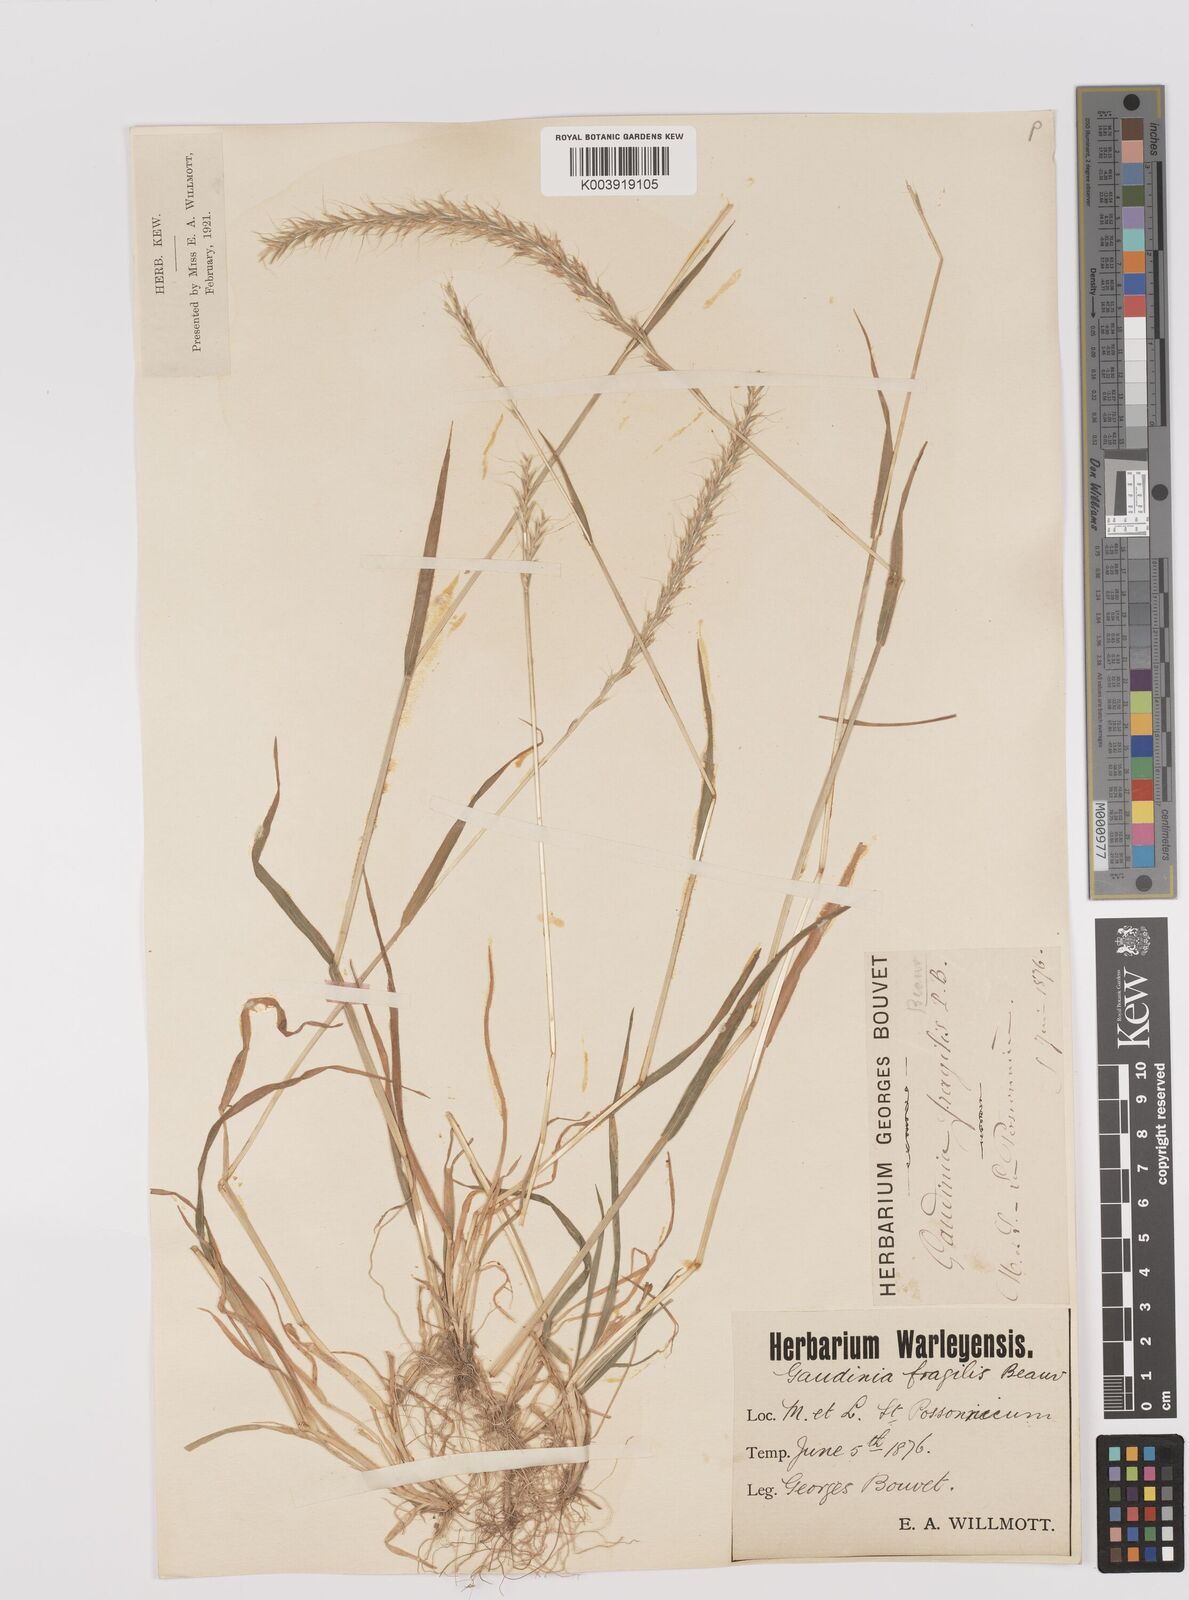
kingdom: Plantae
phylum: Tracheophyta
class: Liliopsida
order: Poales
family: Poaceae
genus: Gaudinia
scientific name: Gaudinia fragilis
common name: French oat-grass
